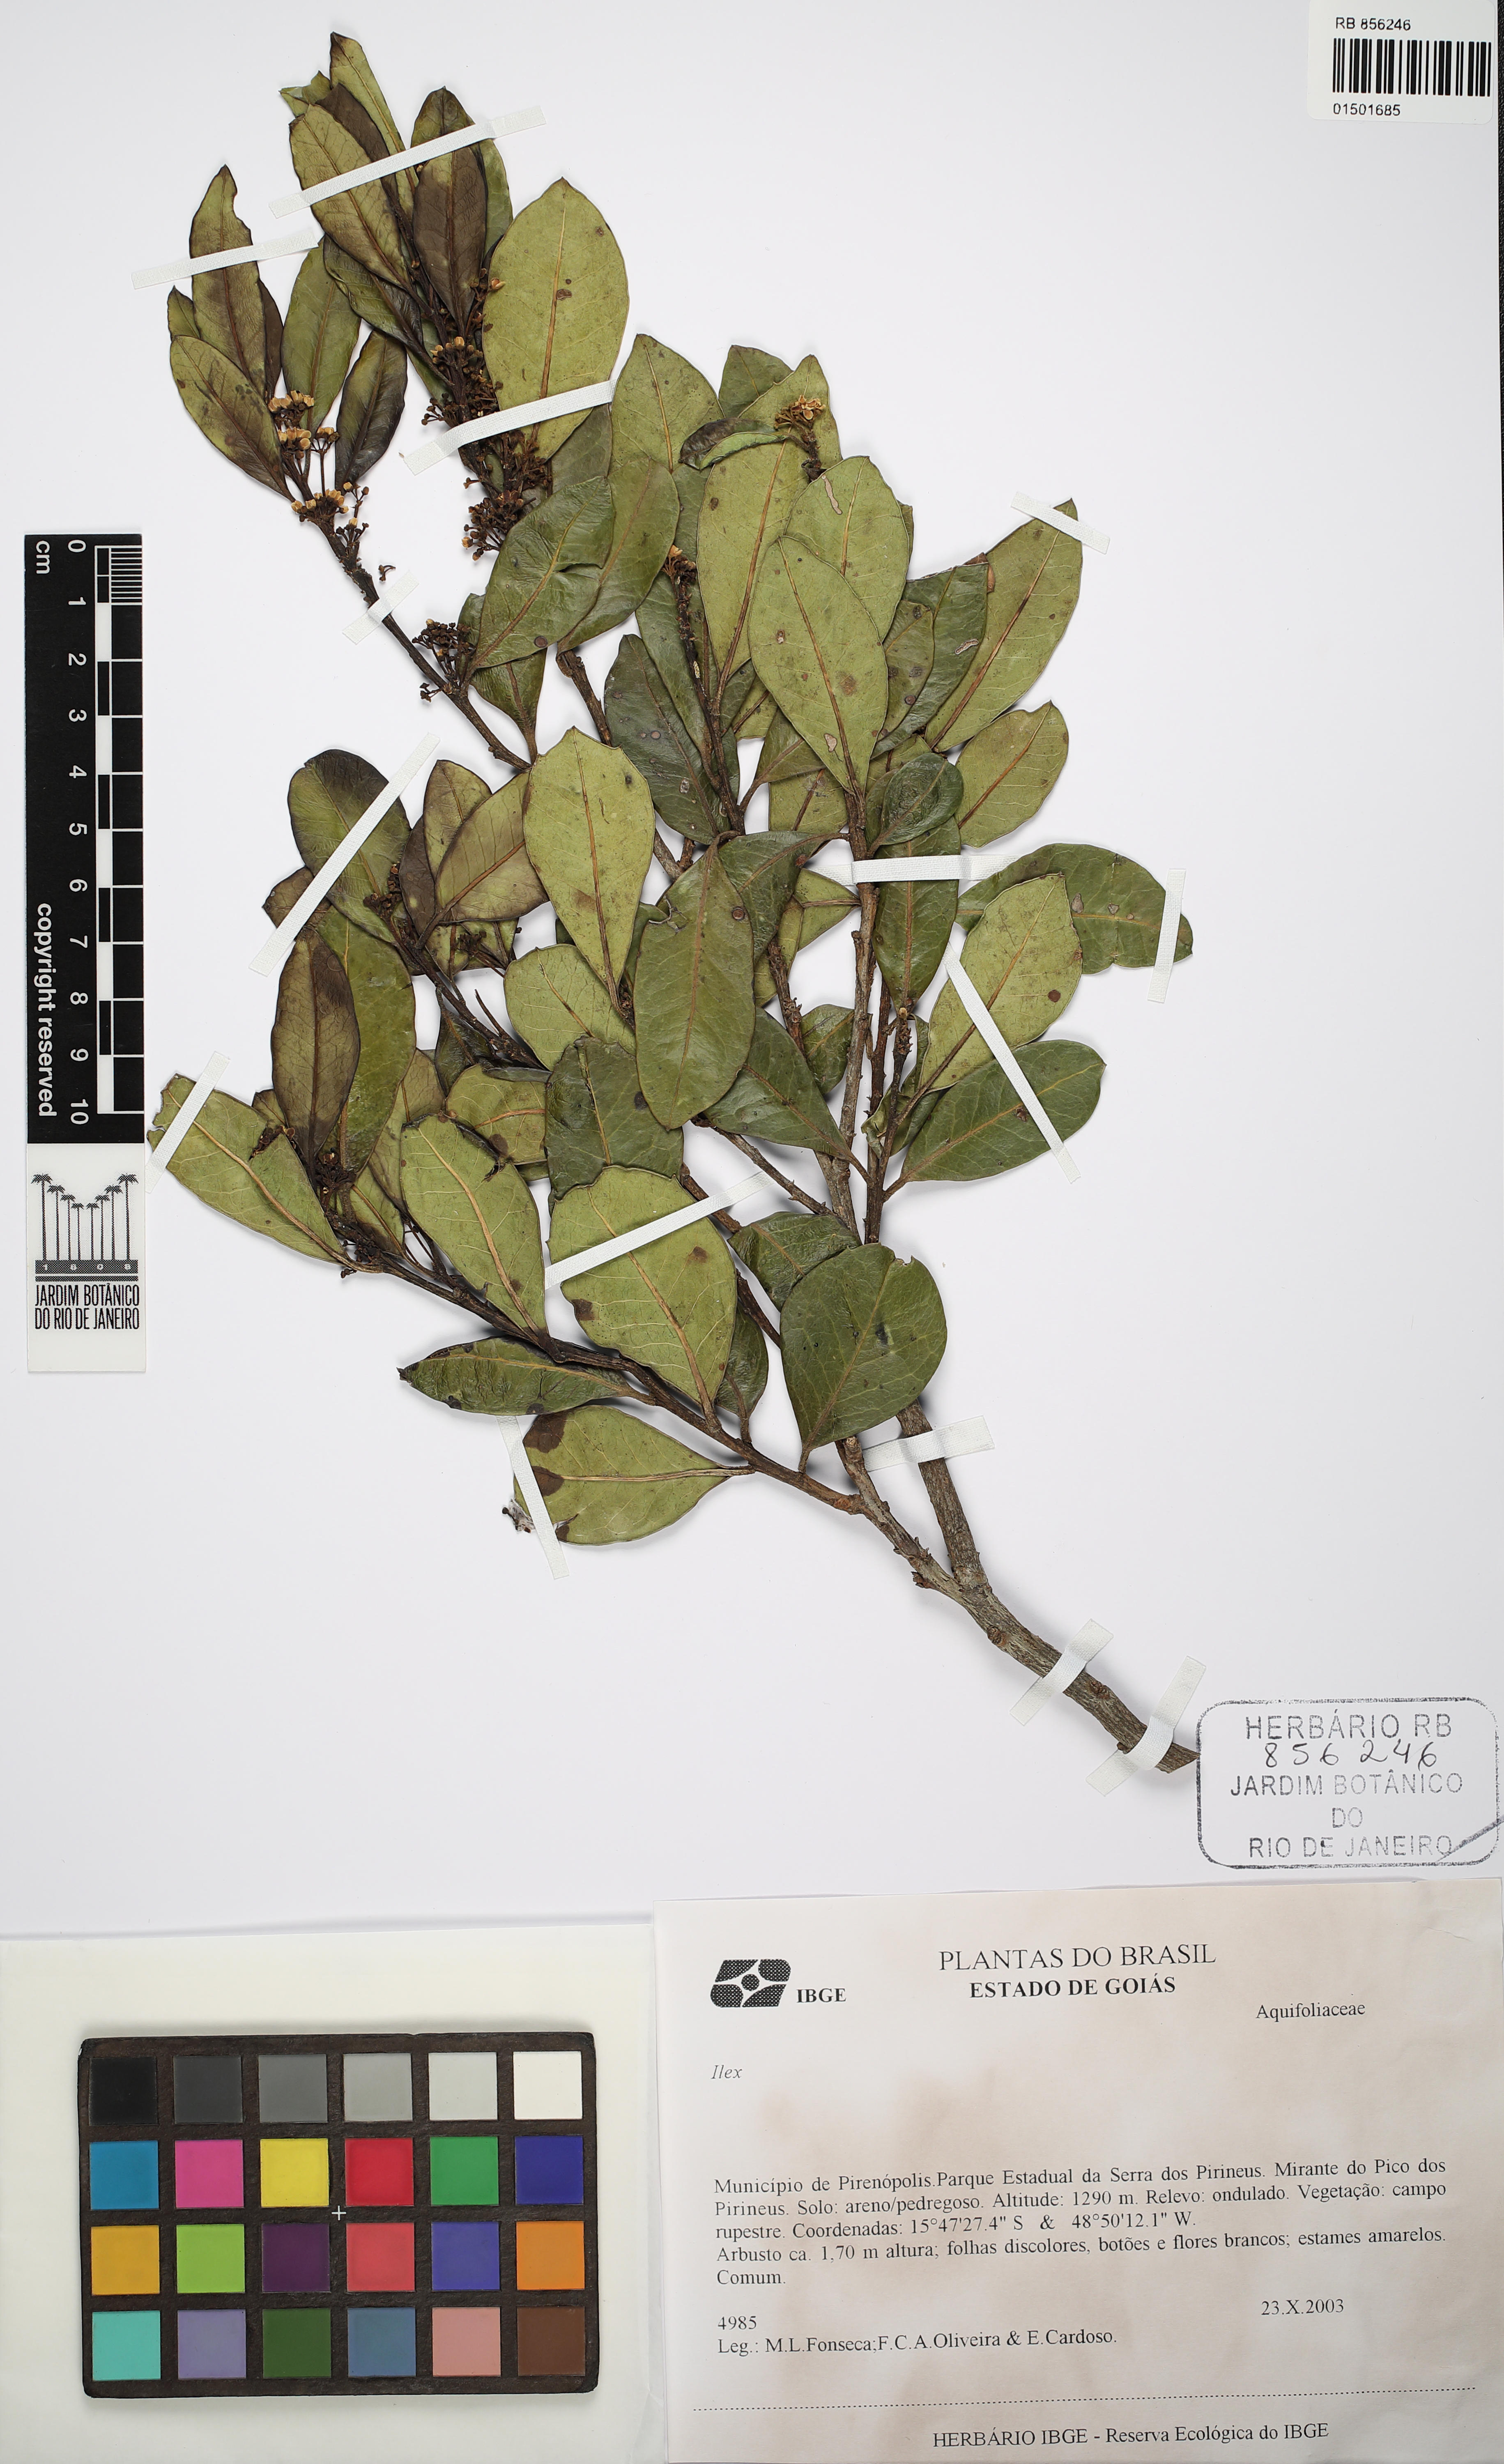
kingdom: Plantae
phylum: Tracheophyta
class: Magnoliopsida
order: Aquifoliales
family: Aquifoliaceae
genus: Ilex
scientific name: Ilex
